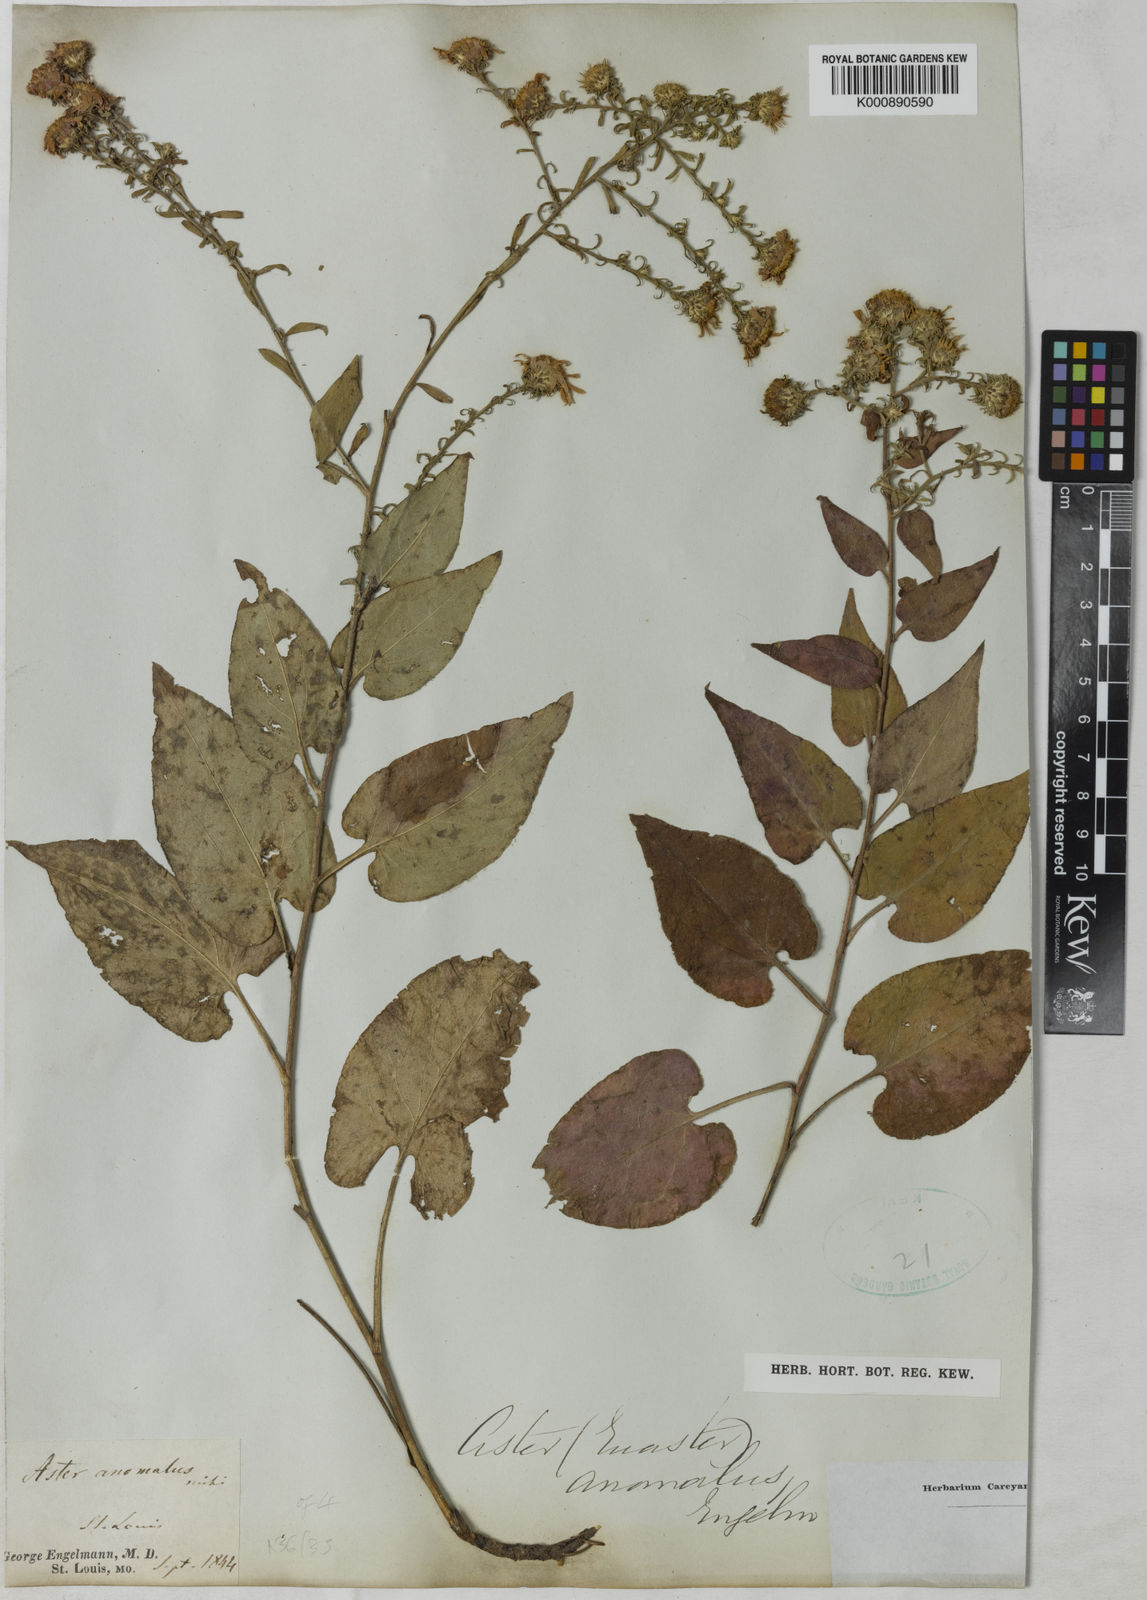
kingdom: Plantae
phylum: Tracheophyta
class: Magnoliopsida
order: Asterales
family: Asteraceae
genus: Aster
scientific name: Aster
